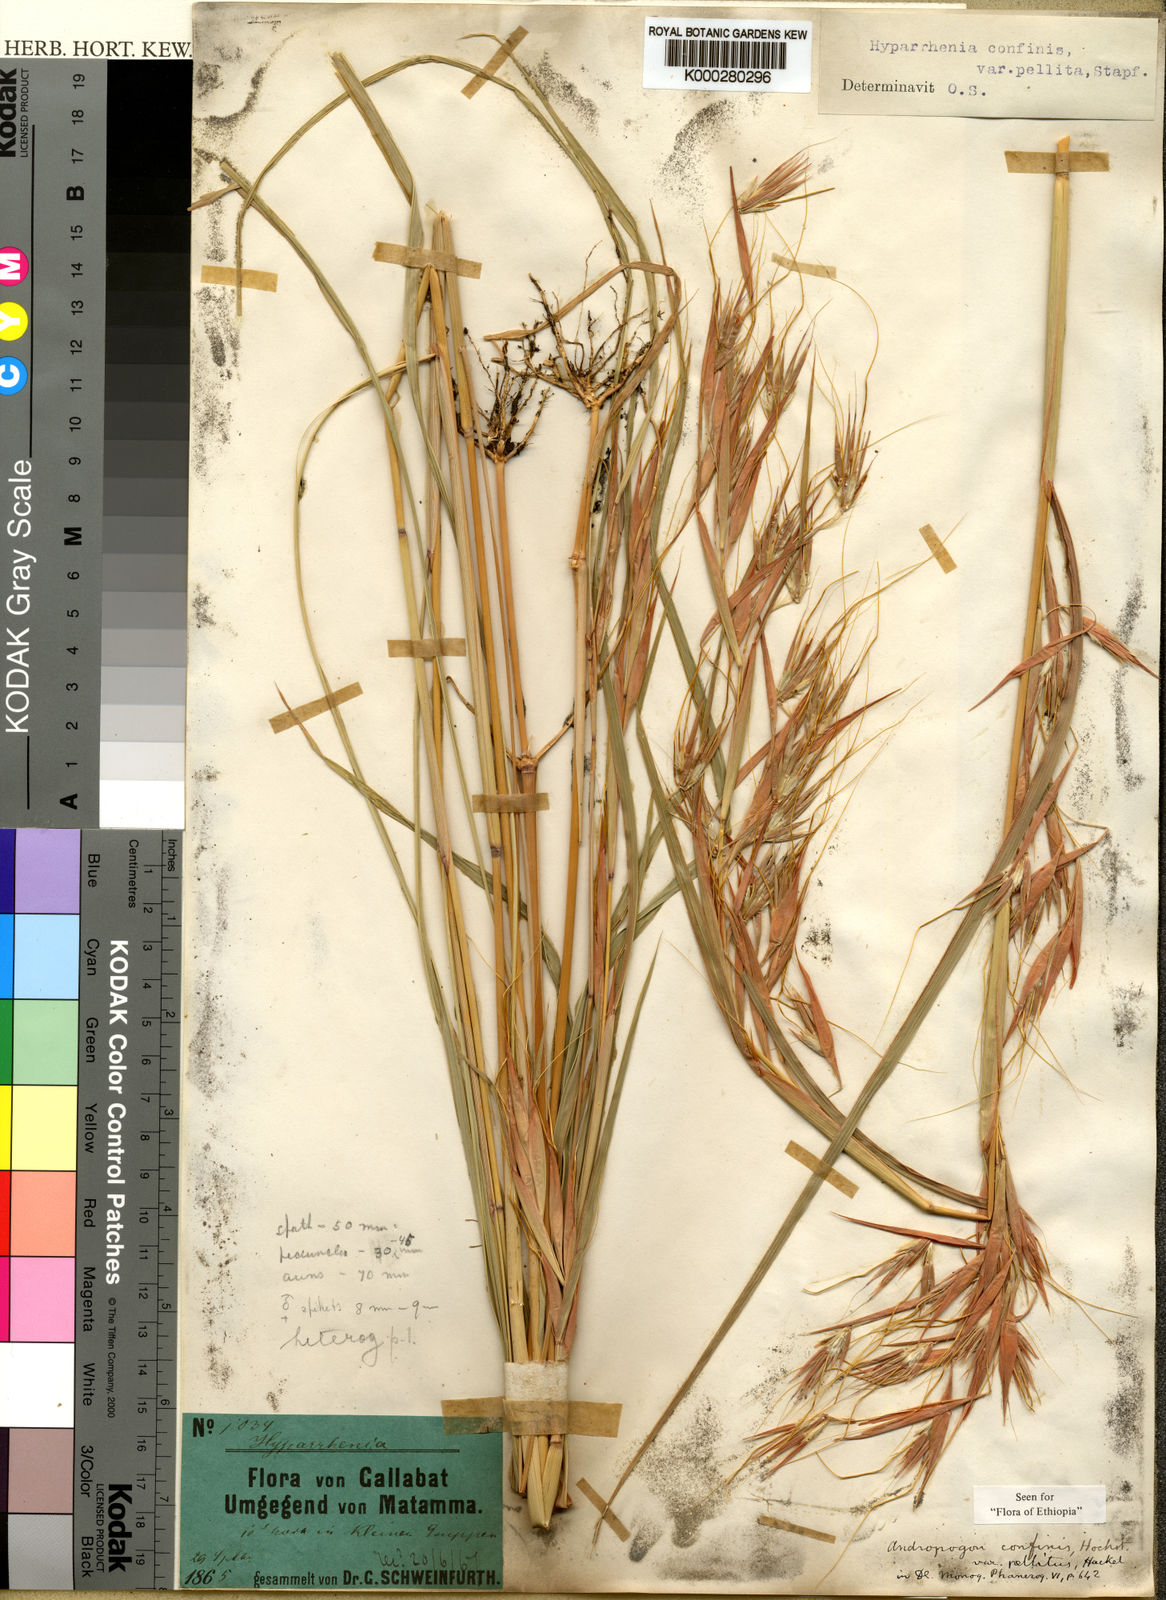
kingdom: Plantae
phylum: Tracheophyta
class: Liliopsida
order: Poales
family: Poaceae
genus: Hyparrhenia
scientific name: Hyparrhenia confinis
